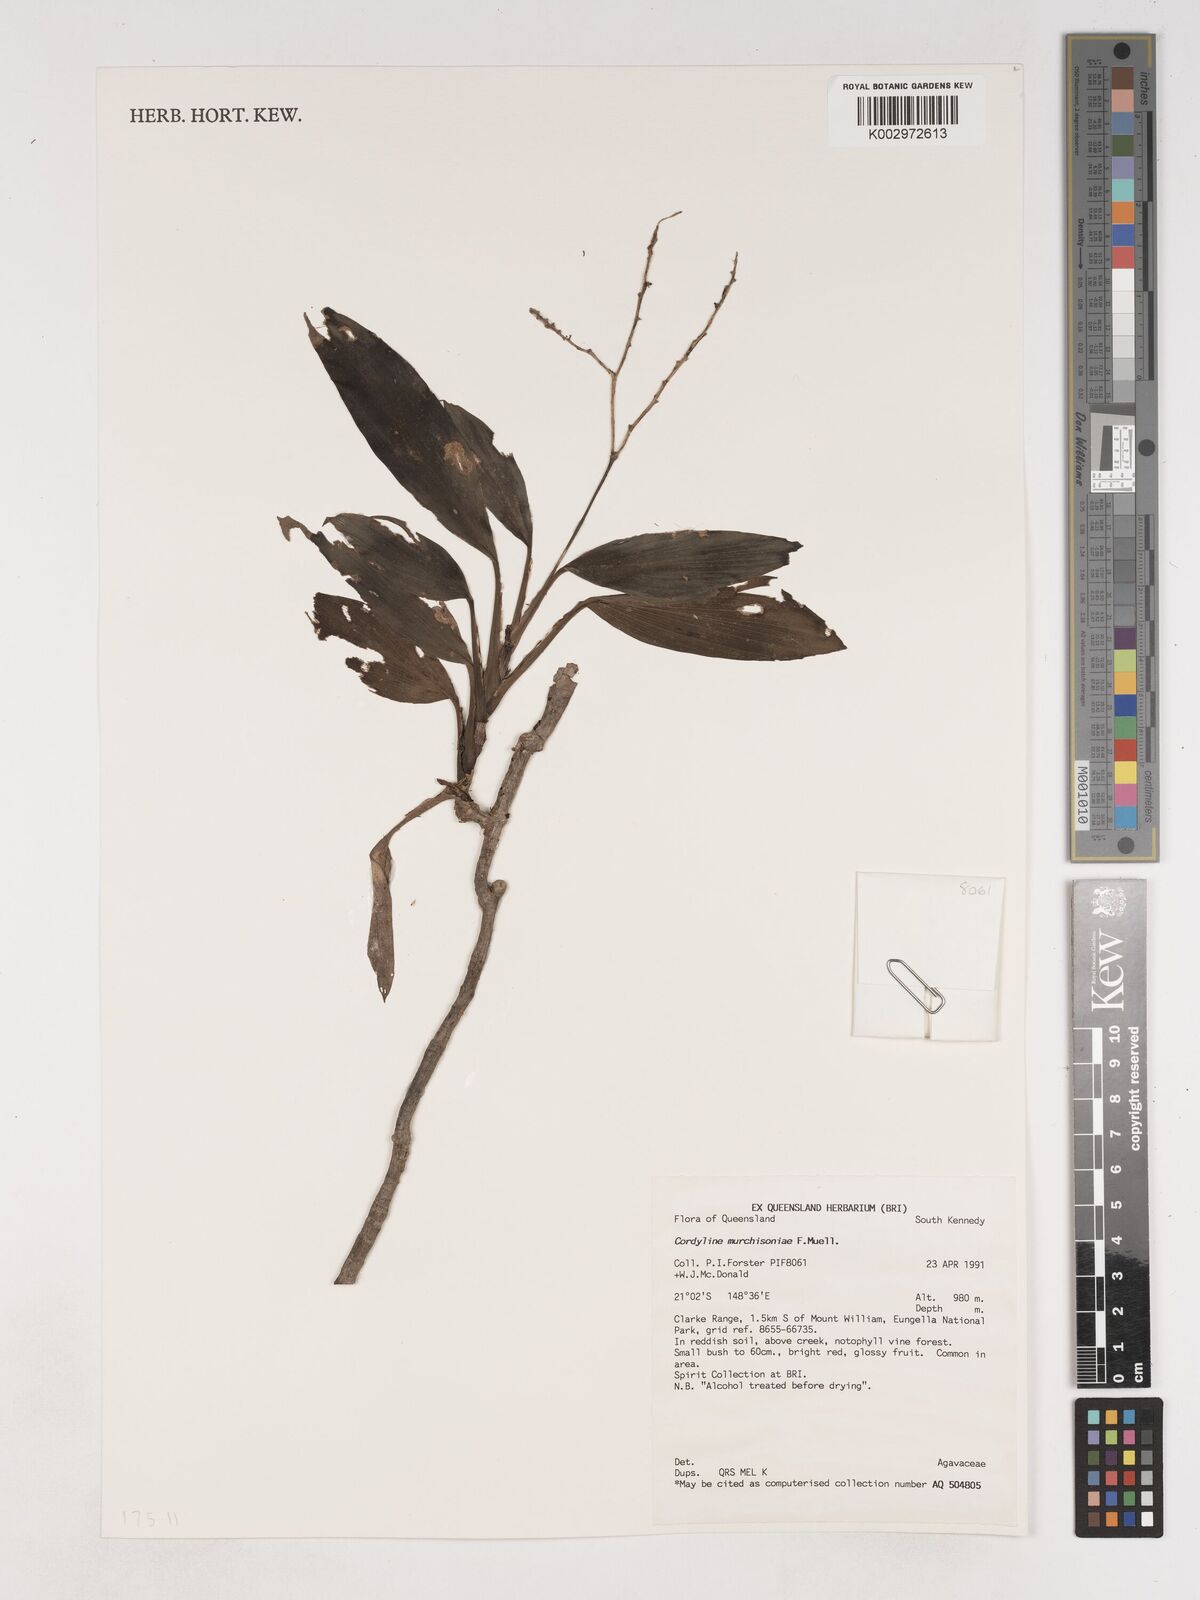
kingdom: Plantae
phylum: Tracheophyta
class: Liliopsida
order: Asparagales
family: Asparagaceae
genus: Cordyline
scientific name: Cordyline murchisoniae
